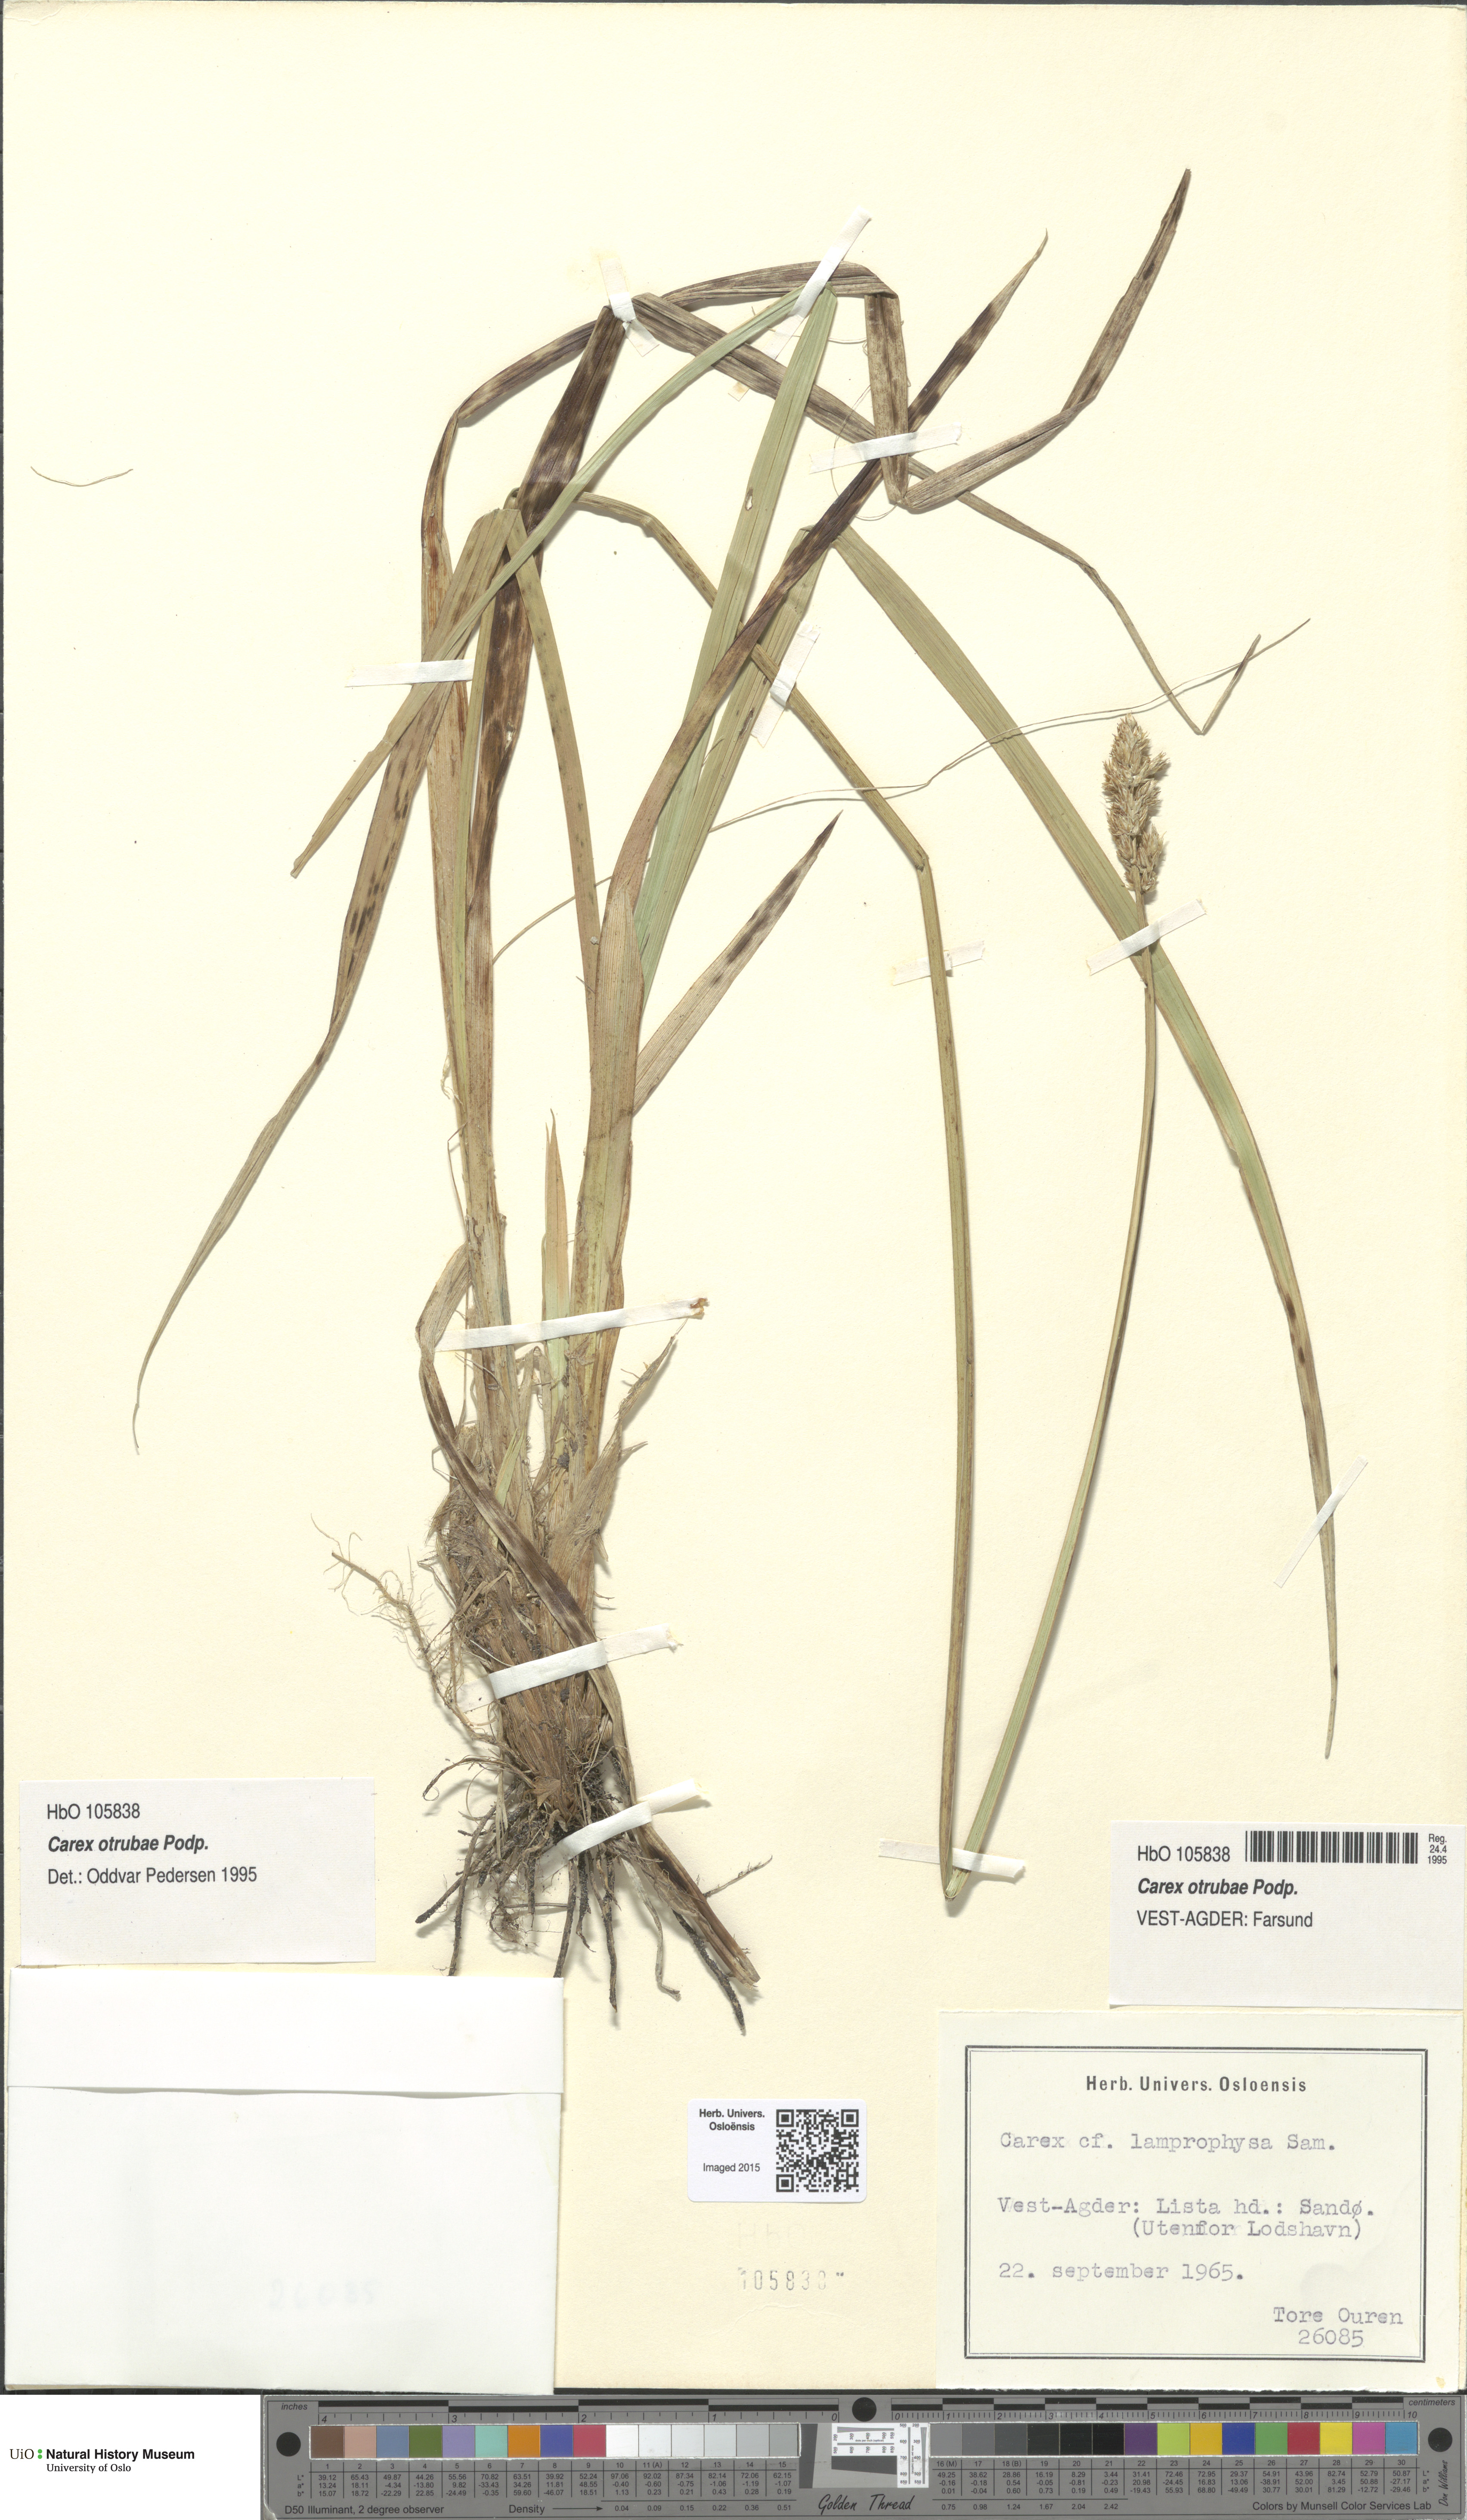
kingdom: Plantae
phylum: Tracheophyta
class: Liliopsida
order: Poales
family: Cyperaceae
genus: Carex
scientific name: Carex otrubae
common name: False fox-sedge
